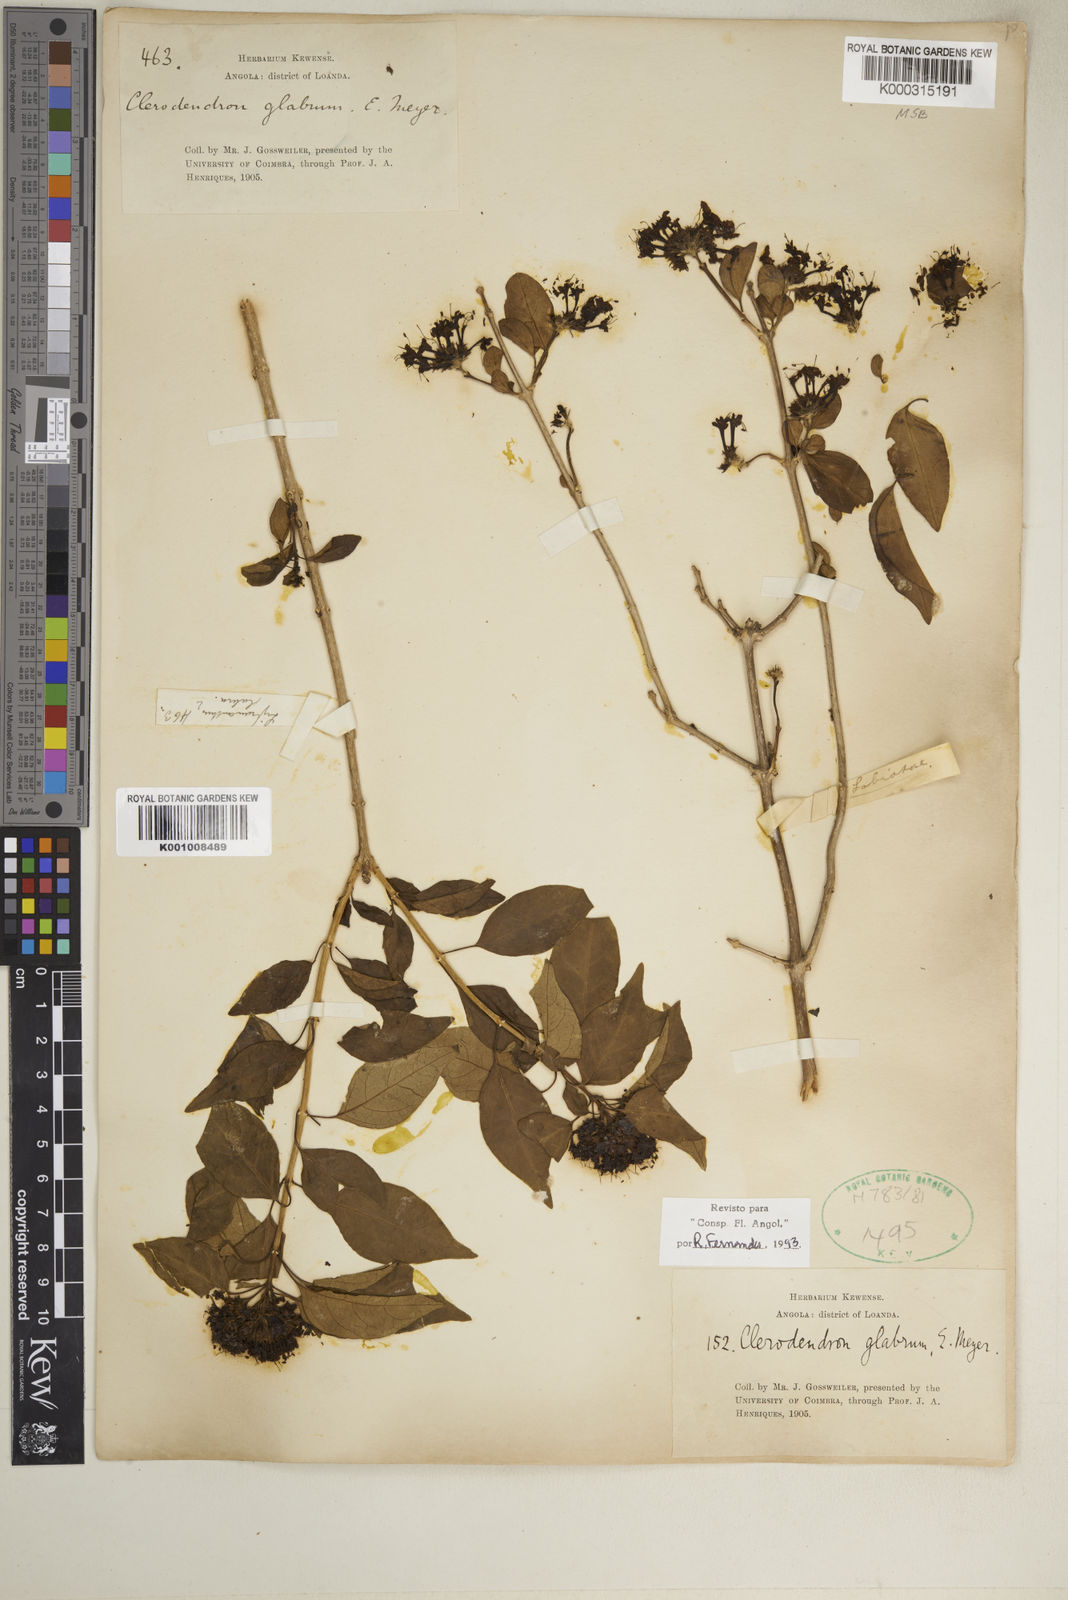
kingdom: Plantae
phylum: Tracheophyta
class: Magnoliopsida
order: Lamiales
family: Lamiaceae
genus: Volkameria
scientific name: Volkameria glabra
